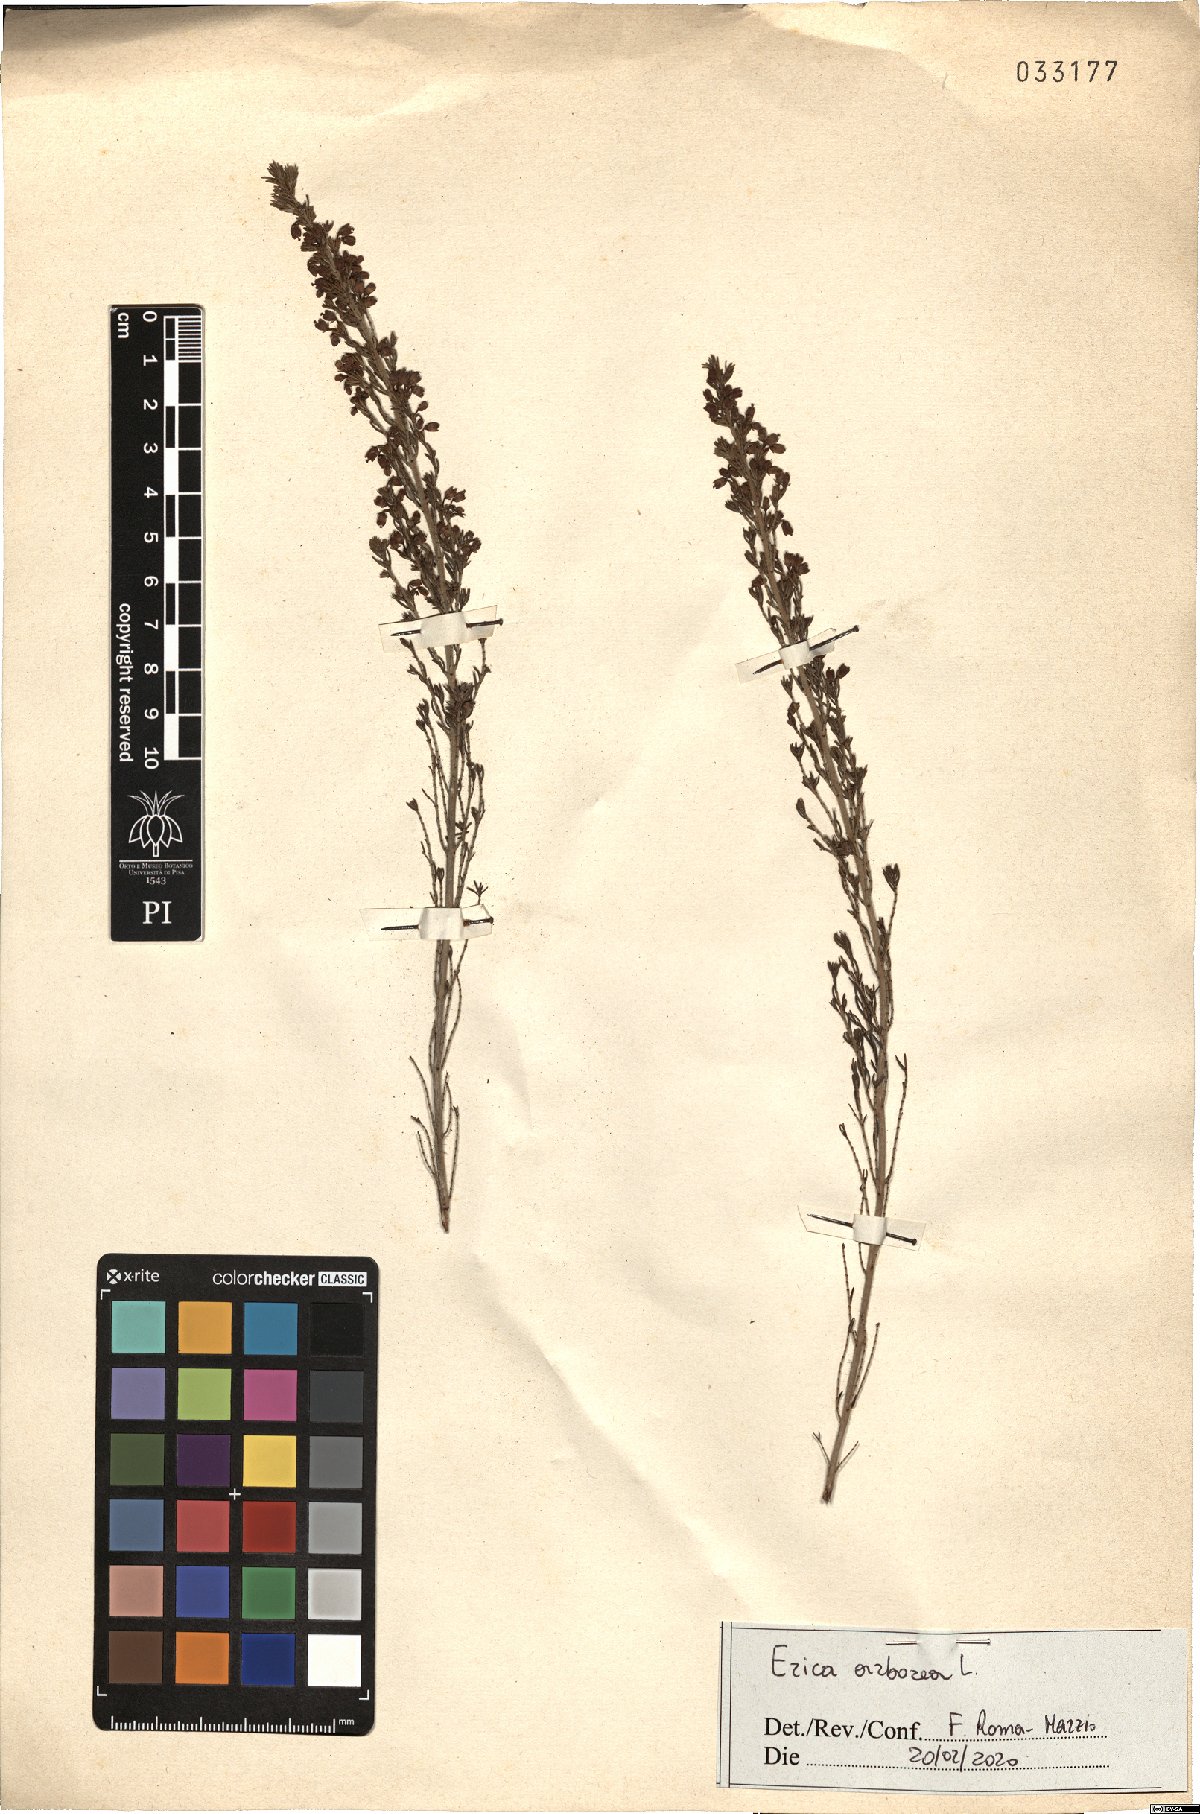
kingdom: Plantae
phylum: Tracheophyta
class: Magnoliopsida
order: Ericales
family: Ericaceae
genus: Erica
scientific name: Erica arborea
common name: Tree heath
